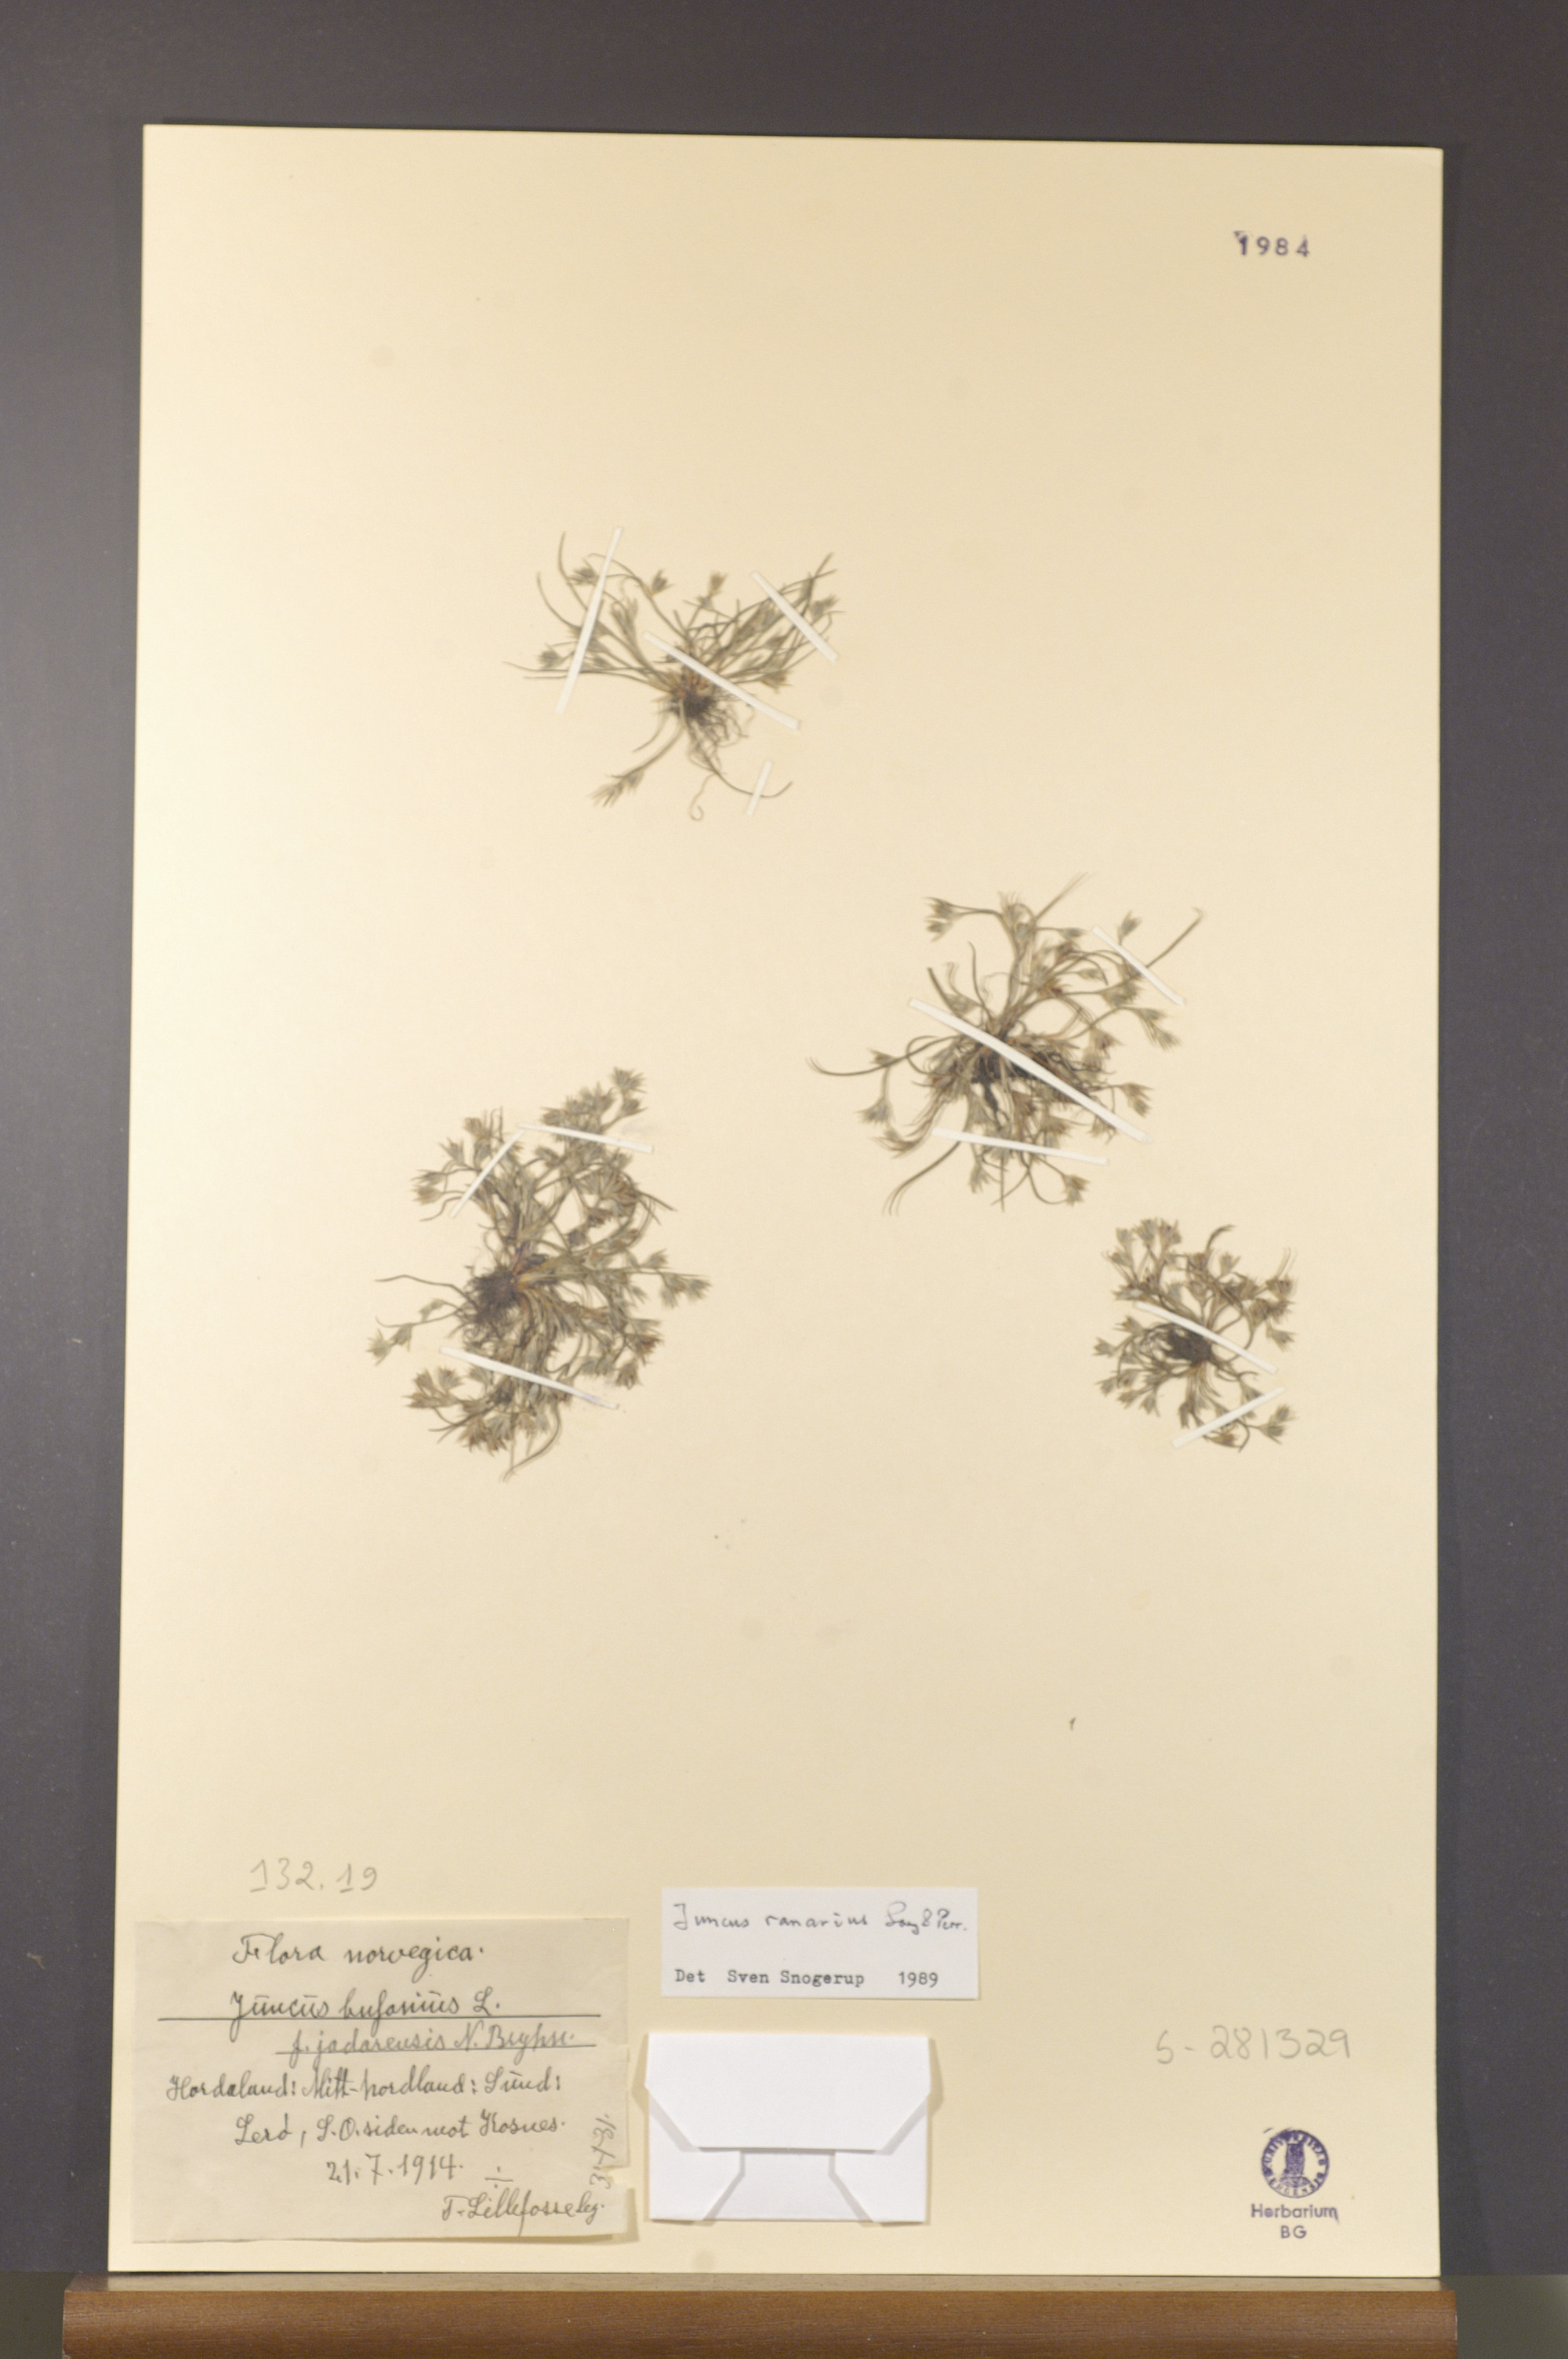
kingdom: Plantae
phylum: Tracheophyta
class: Liliopsida
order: Poales
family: Juncaceae
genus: Juncus
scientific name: Juncus ranarius
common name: Frog rush
